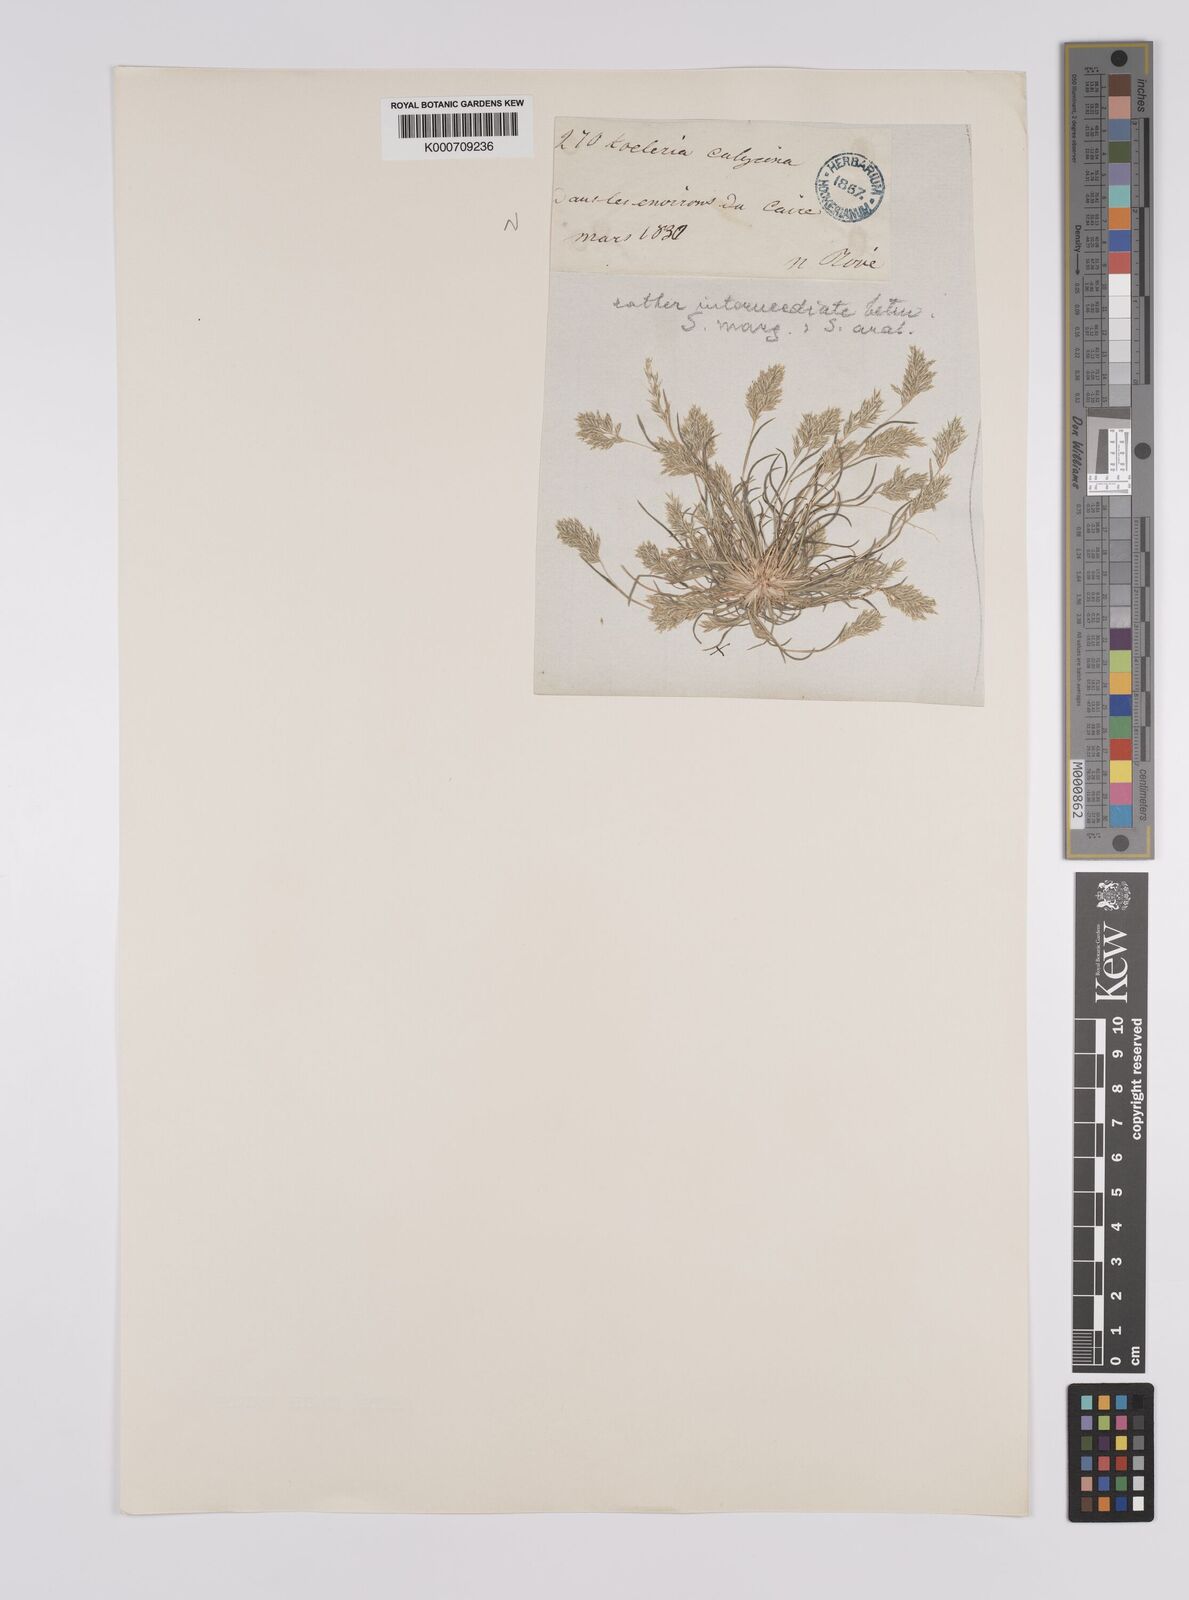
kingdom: Plantae
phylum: Tracheophyta
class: Liliopsida
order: Poales
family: Poaceae
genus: Schismus
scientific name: Schismus barbatus
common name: Kelch-grass
